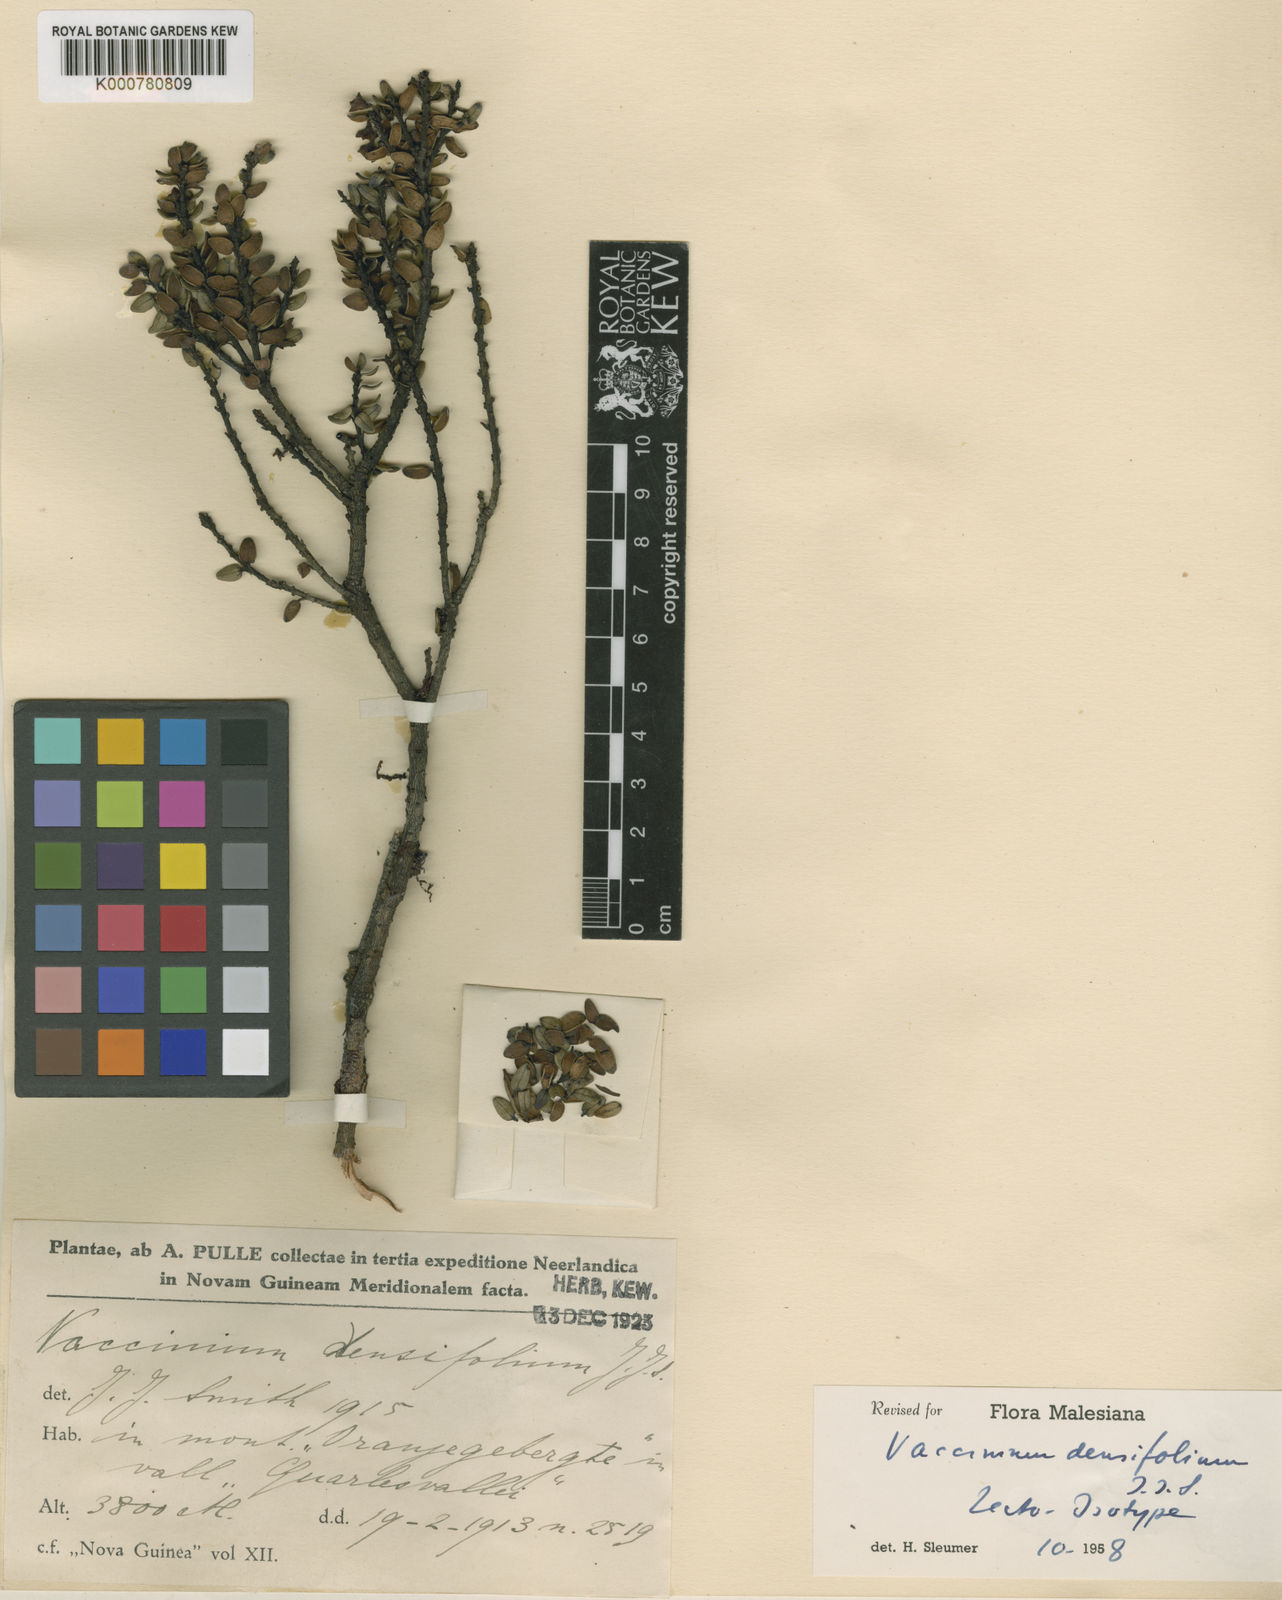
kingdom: Plantae
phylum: Tracheophyta
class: Magnoliopsida
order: Ericales
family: Ericaceae
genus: Vaccinium
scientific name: Vaccinium densifolium
